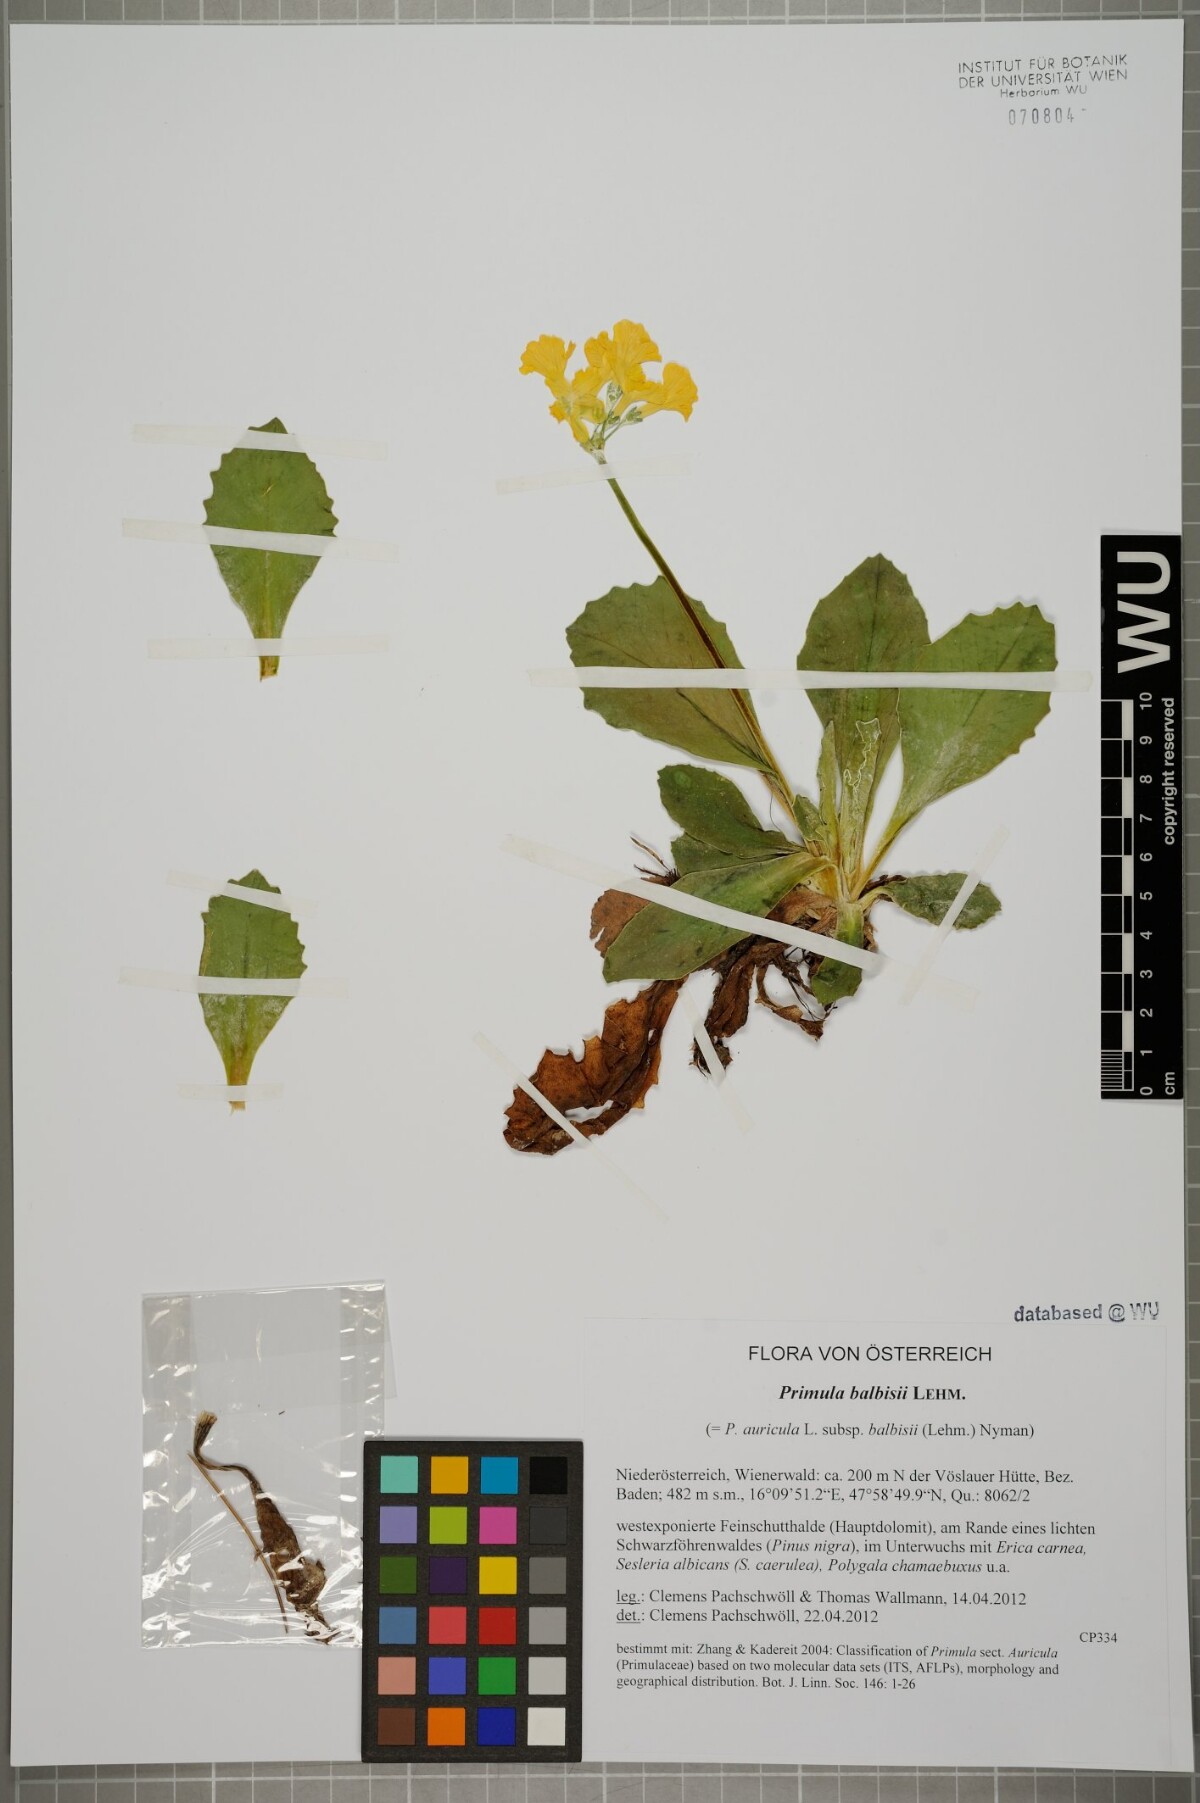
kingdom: Plantae
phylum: Tracheophyta
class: Magnoliopsida
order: Ericales
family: Primulaceae
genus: Primula
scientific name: Primula auricula
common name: Auricula
